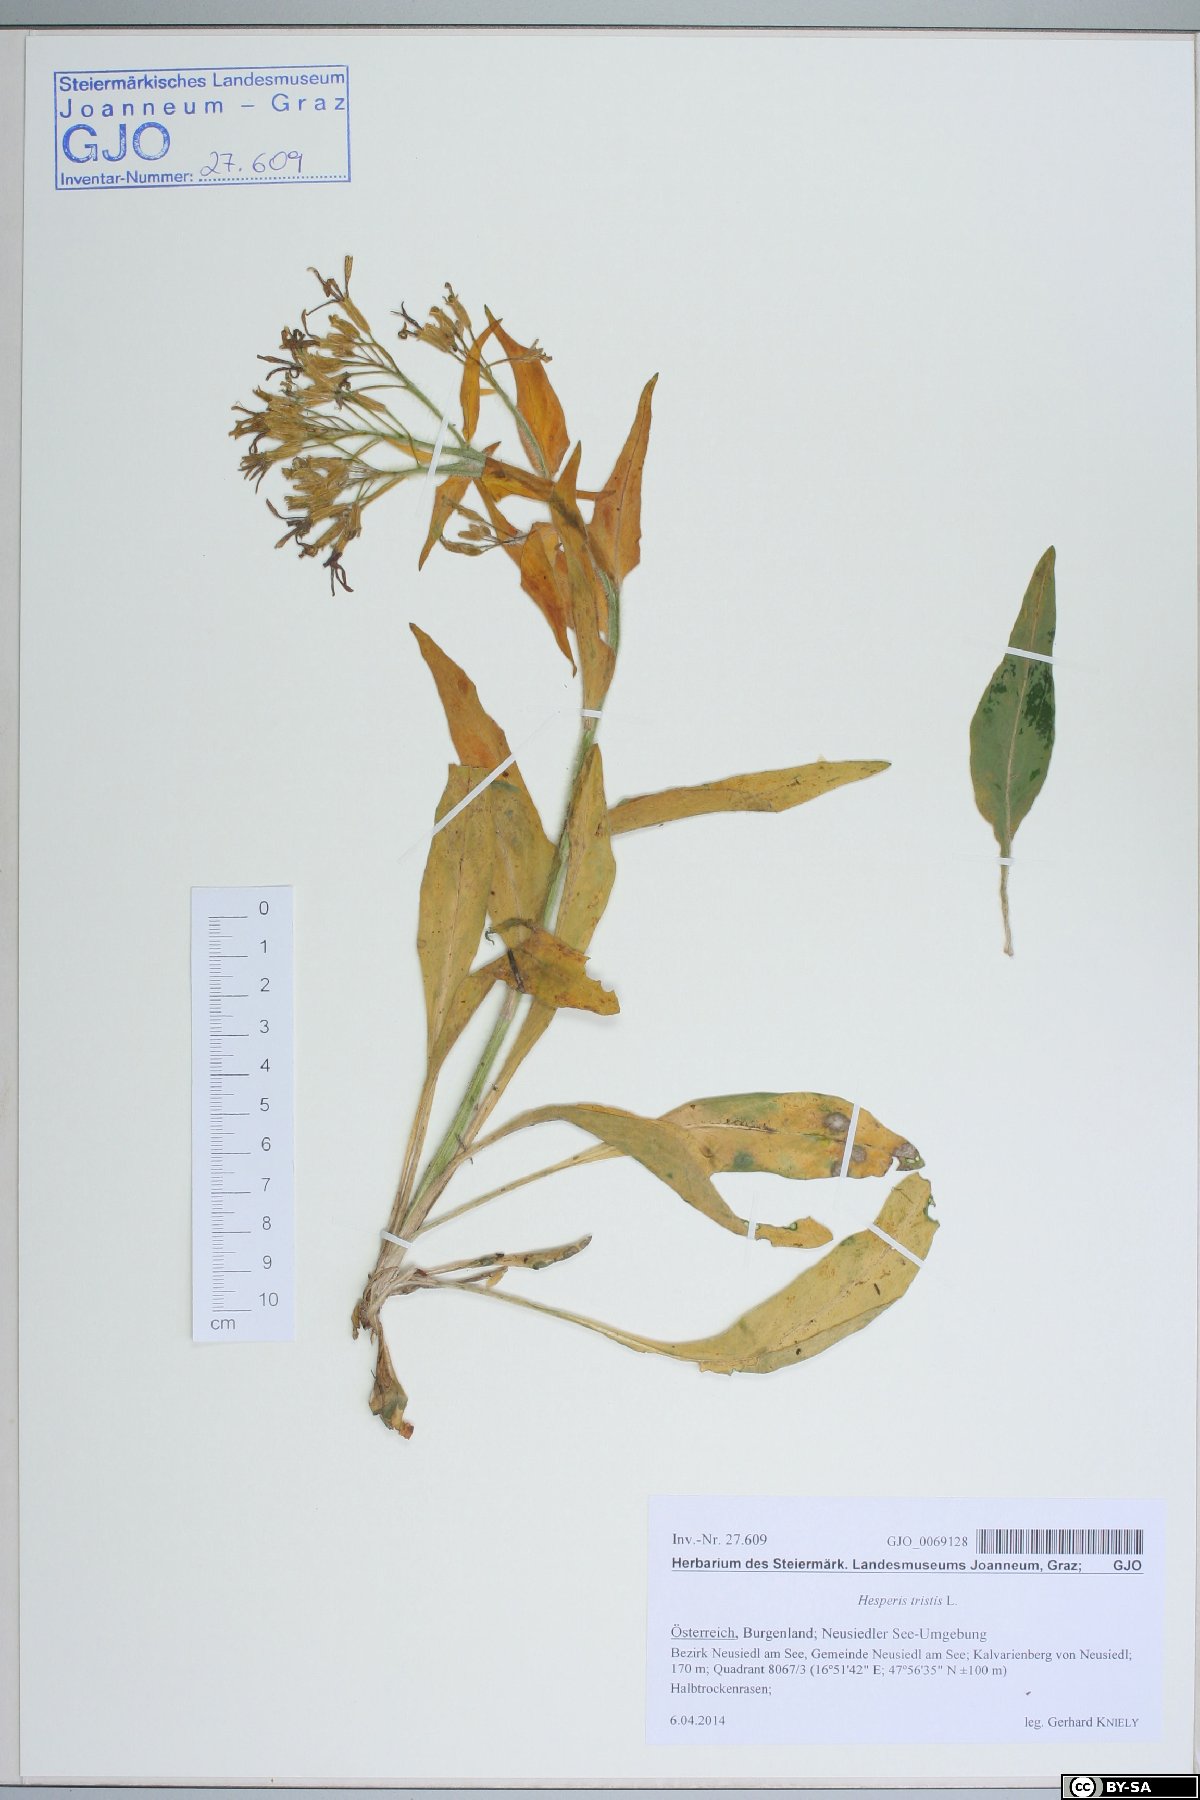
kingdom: Plantae
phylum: Tracheophyta
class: Magnoliopsida
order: Brassicales
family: Brassicaceae
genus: Hesperis
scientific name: Hesperis tristis
